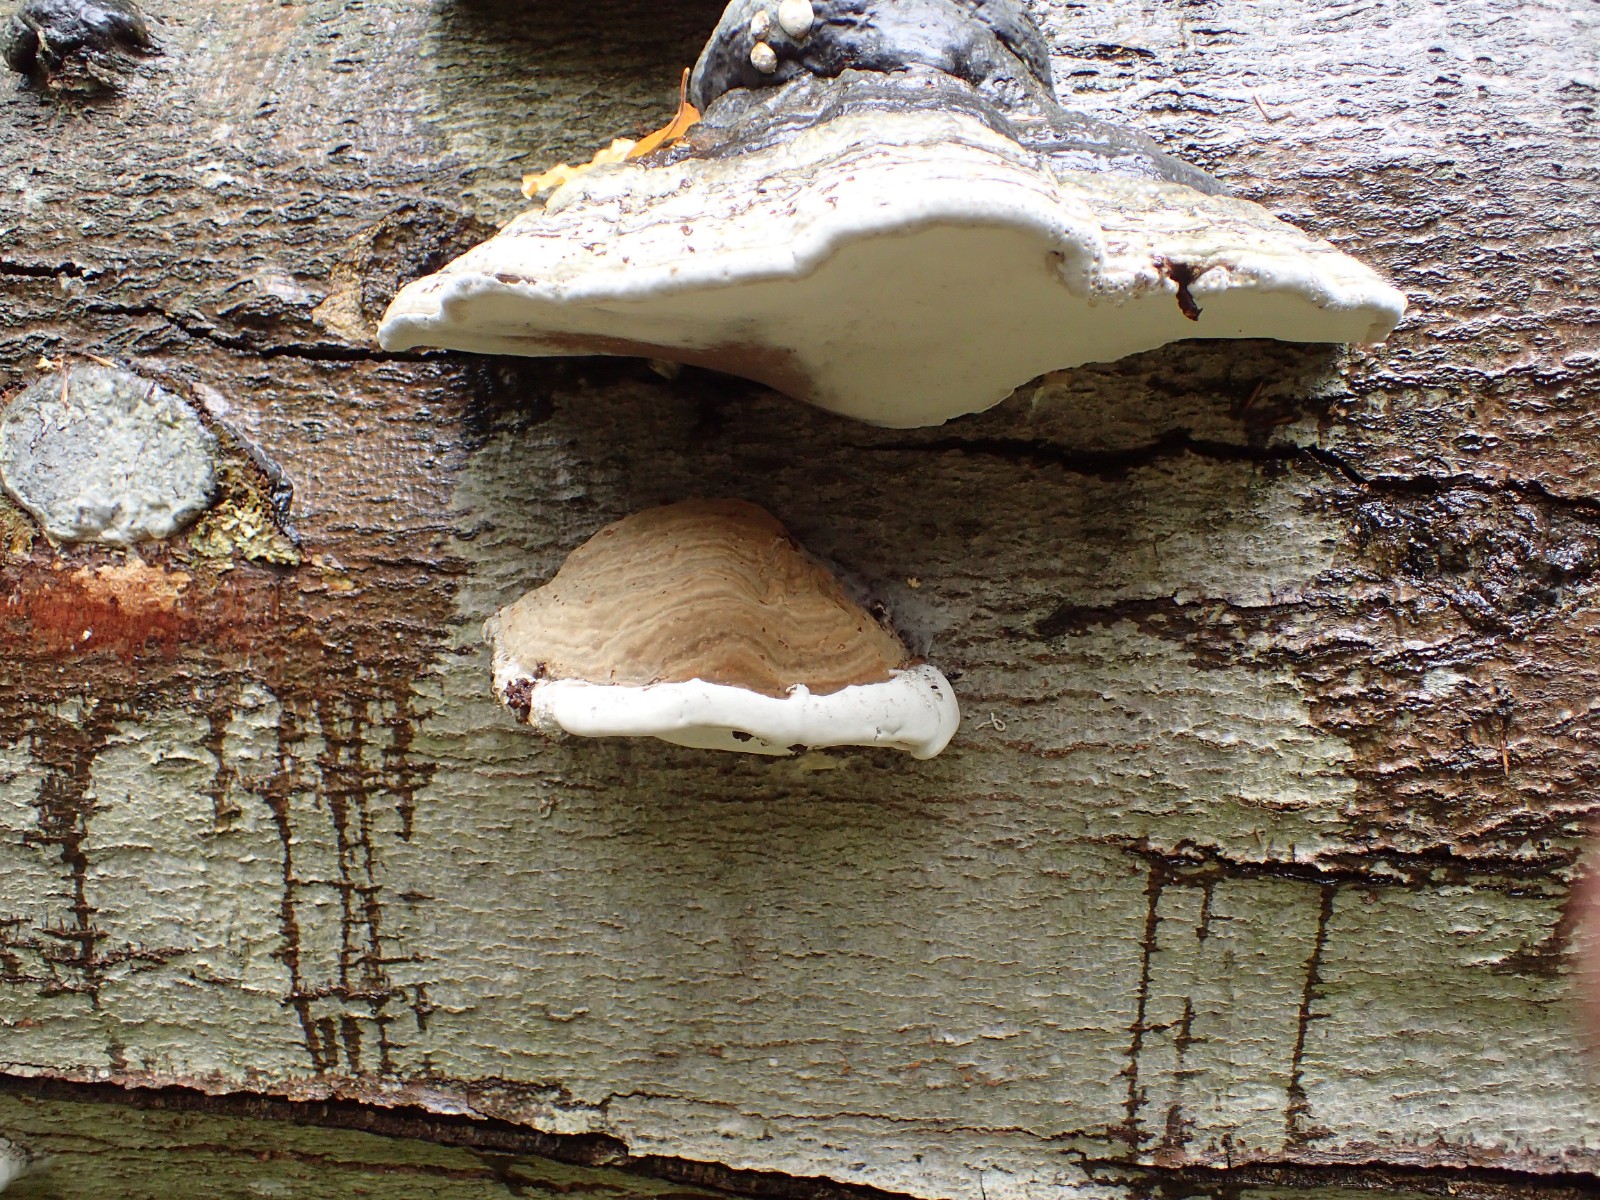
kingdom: Fungi
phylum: Basidiomycota
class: Agaricomycetes
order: Polyporales
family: Polyporaceae
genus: Ganoderma
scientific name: Ganoderma pfeifferi
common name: kobberrød lakporesvamp
